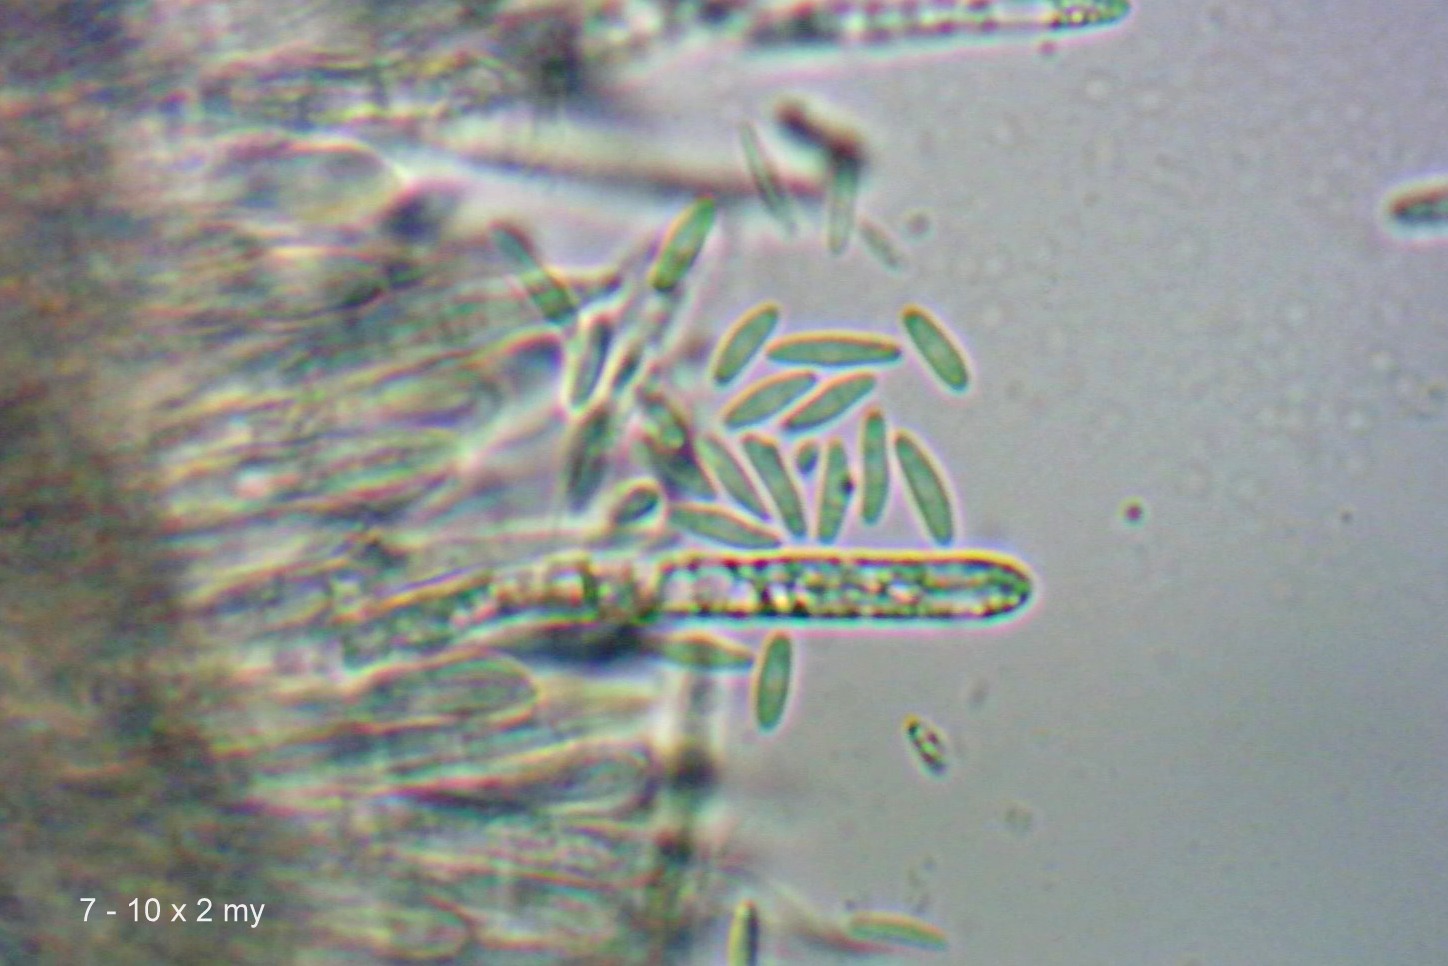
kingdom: Fungi
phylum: Ascomycota
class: Leotiomycetes
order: Helotiales
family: Lachnaceae
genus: Lachnum
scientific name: Lachnum virgineum
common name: jomfru-frynseskive
